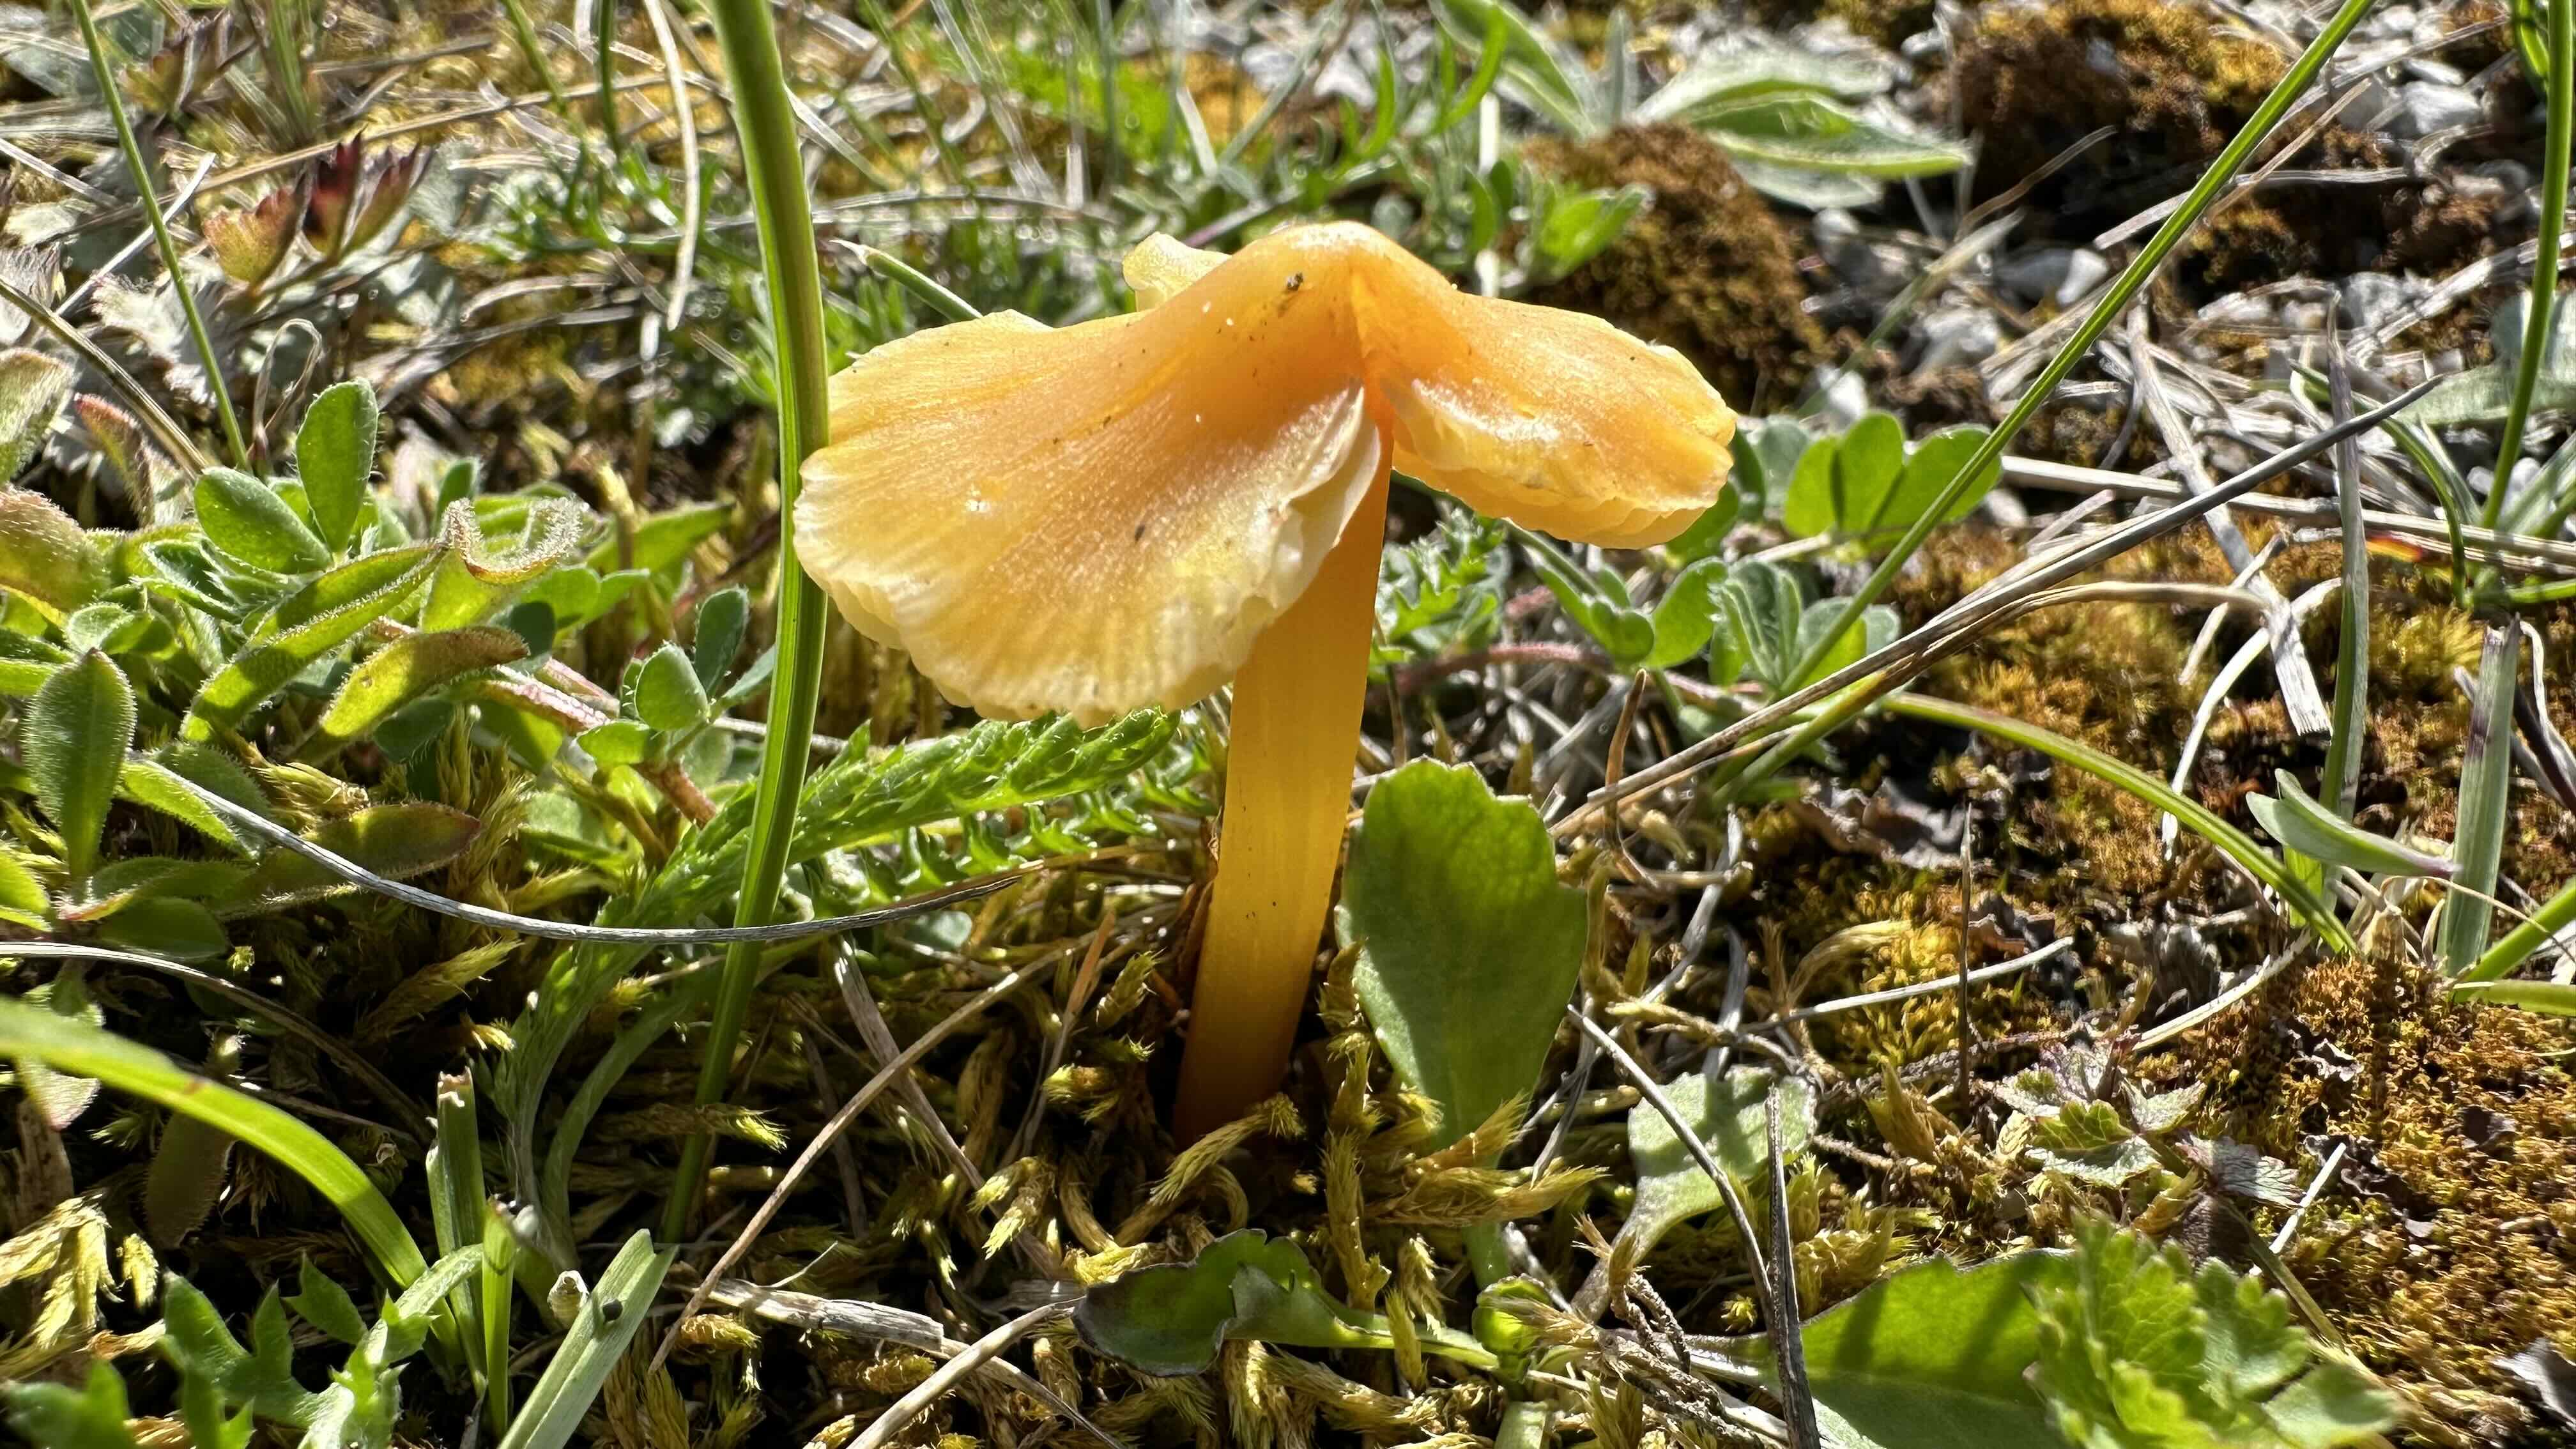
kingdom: Fungi
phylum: Basidiomycota
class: Agaricomycetes
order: Agaricales
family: Hygrophoraceae
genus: Hygrocybe
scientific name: Hygrocybe acutoconica
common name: spidspuklet vokshat
